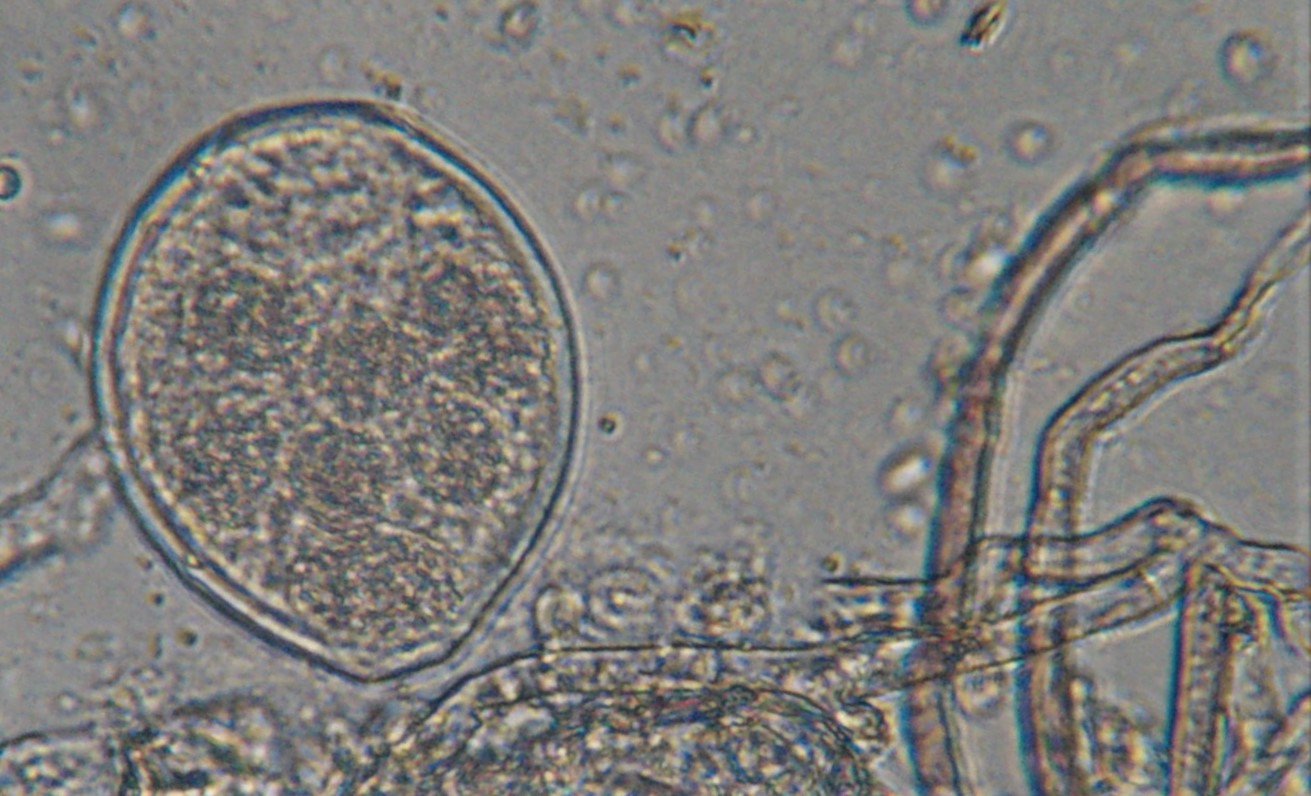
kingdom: Fungi
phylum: Ascomycota
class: Leotiomycetes
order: Helotiales
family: Erysiphaceae
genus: Podosphaera
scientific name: Podosphaera fusca
